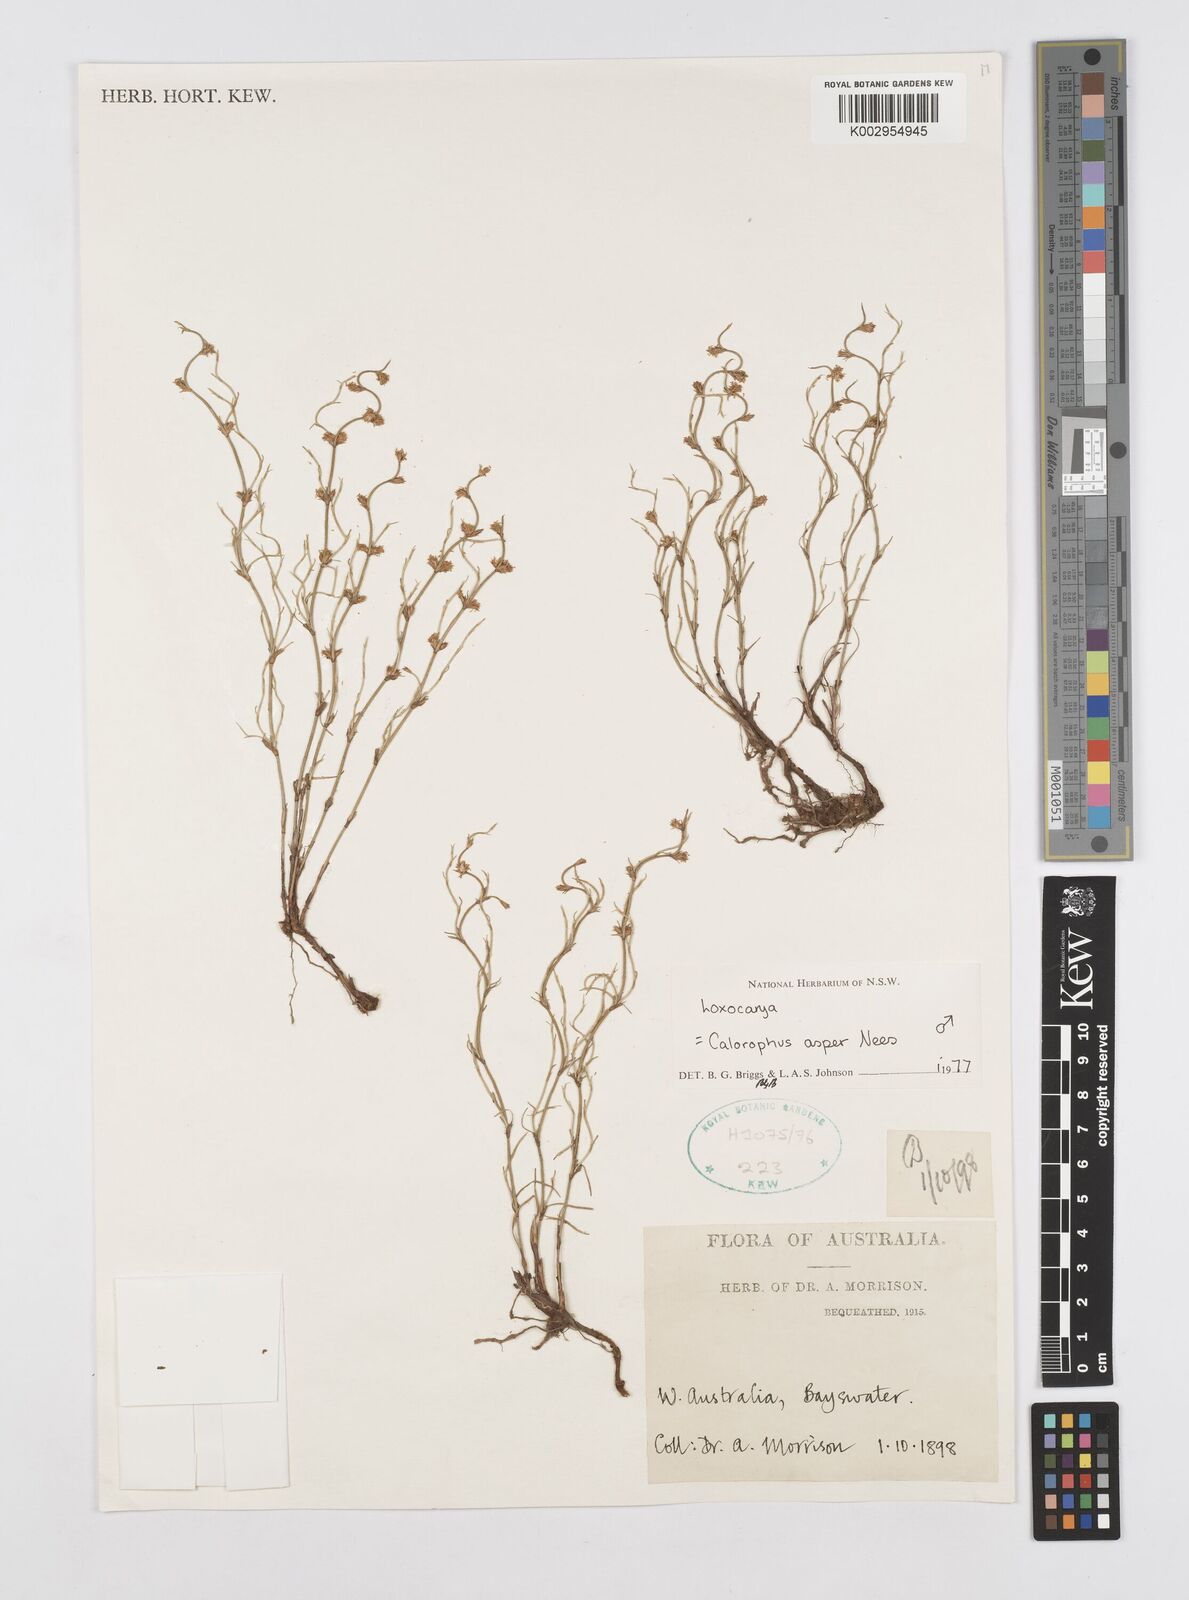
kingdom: Plantae
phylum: Tracheophyta
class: Liliopsida
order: Poales
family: Restionaceae
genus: Desmocladus
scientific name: Desmocladus asper
